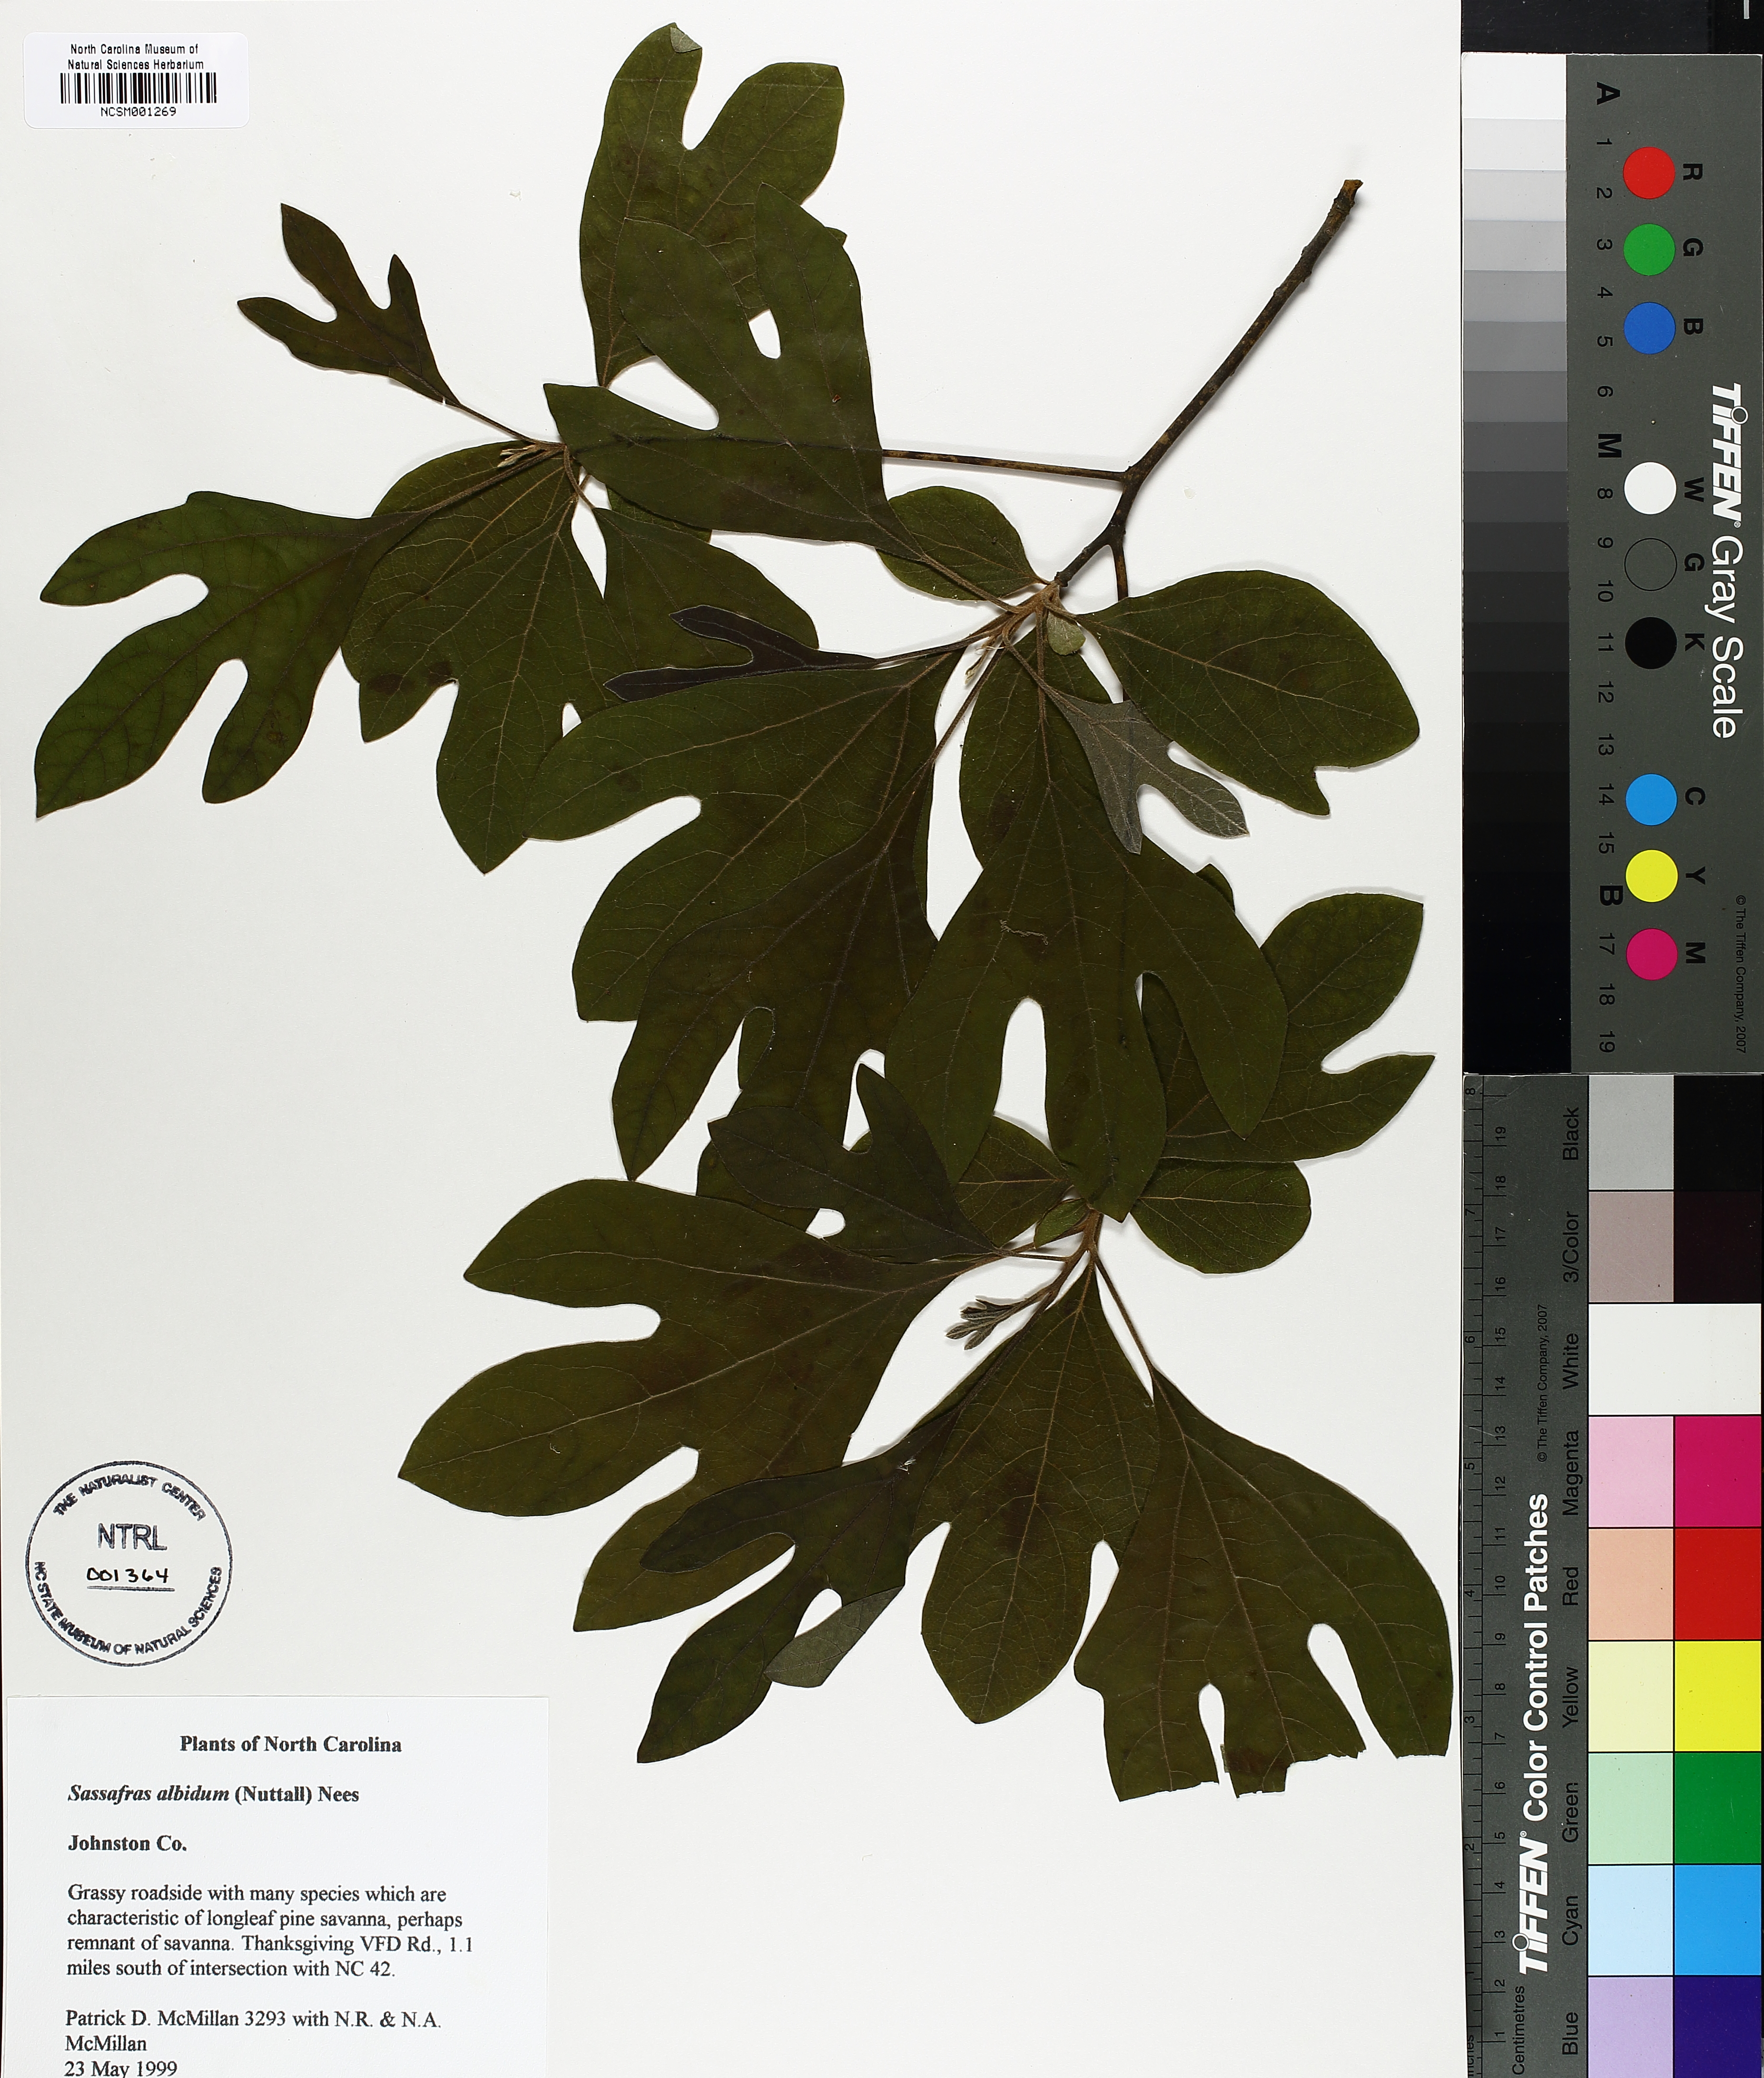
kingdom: Plantae
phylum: Tracheophyta
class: Magnoliopsida
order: Laurales
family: Lauraceae
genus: Sassafras
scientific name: Sassafras albidum
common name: Sassafras
